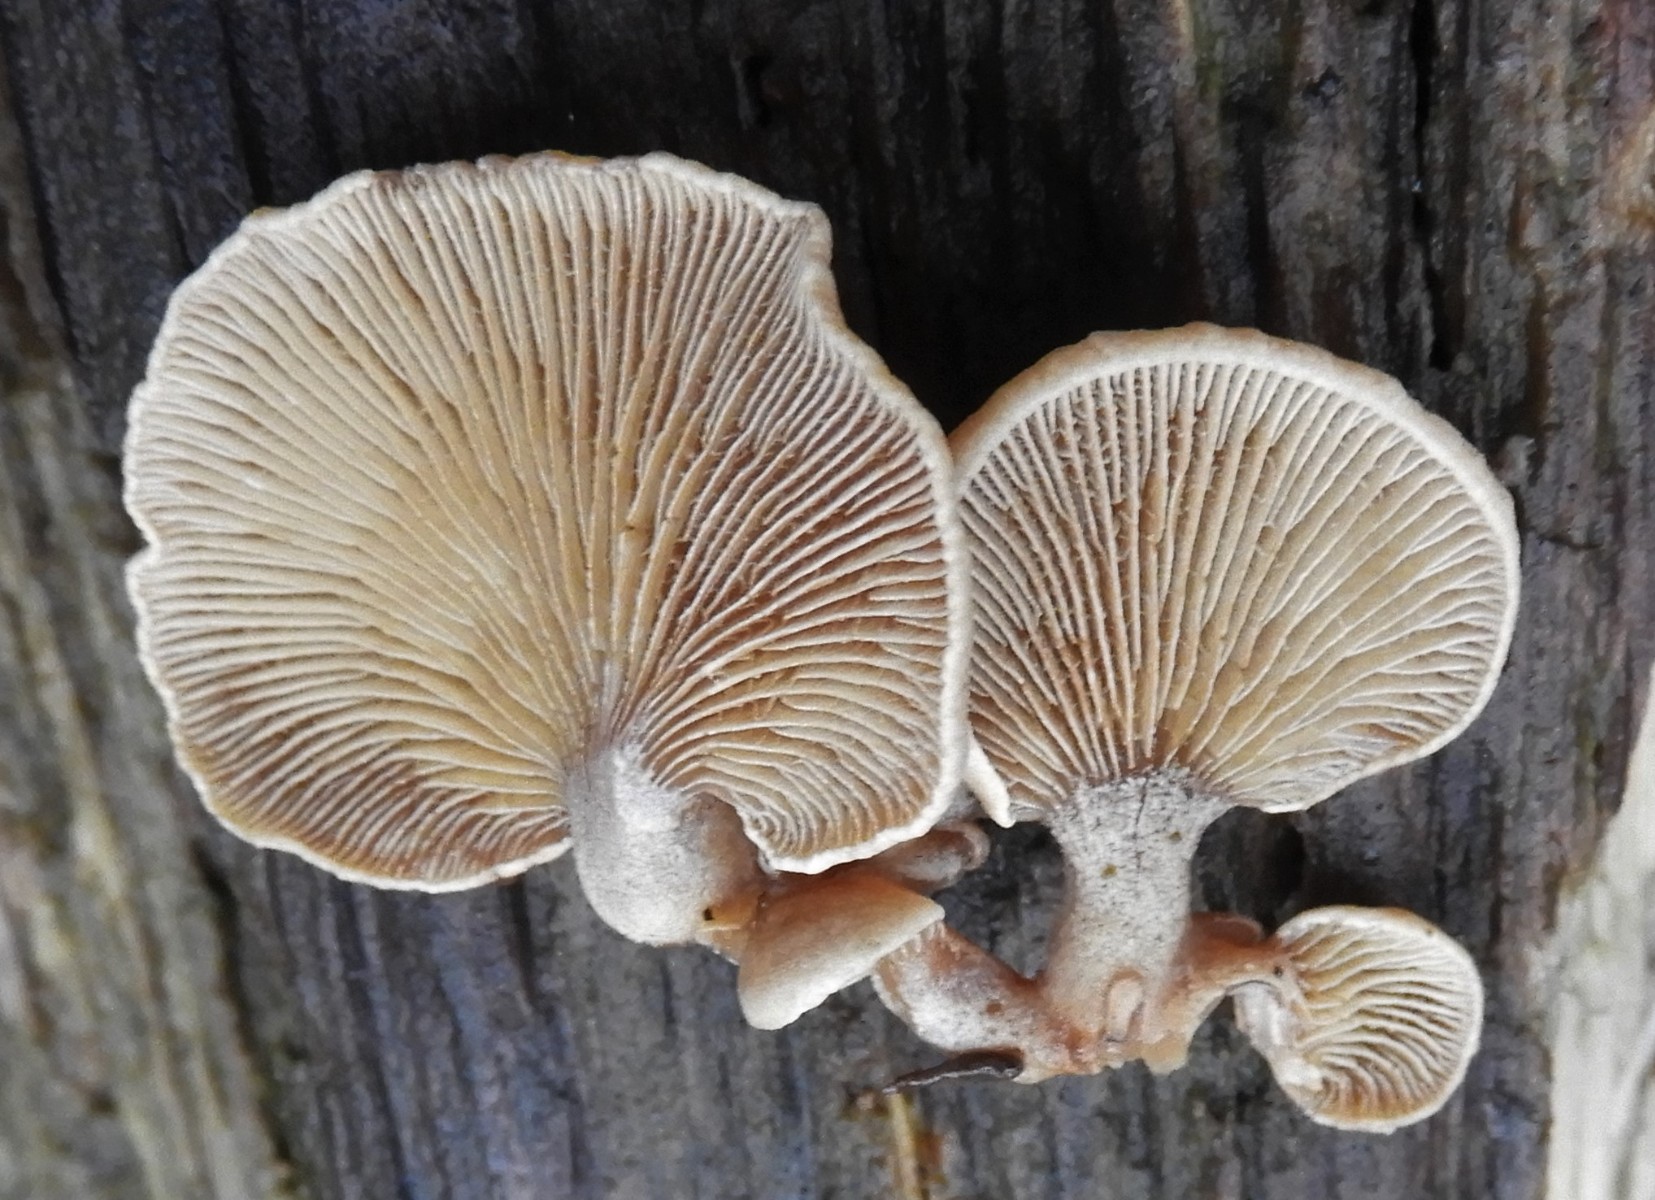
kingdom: Fungi
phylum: Basidiomycota
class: Agaricomycetes
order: Agaricales
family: Mycenaceae
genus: Panellus
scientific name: Panellus stipticus
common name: kliddet epaulethat
